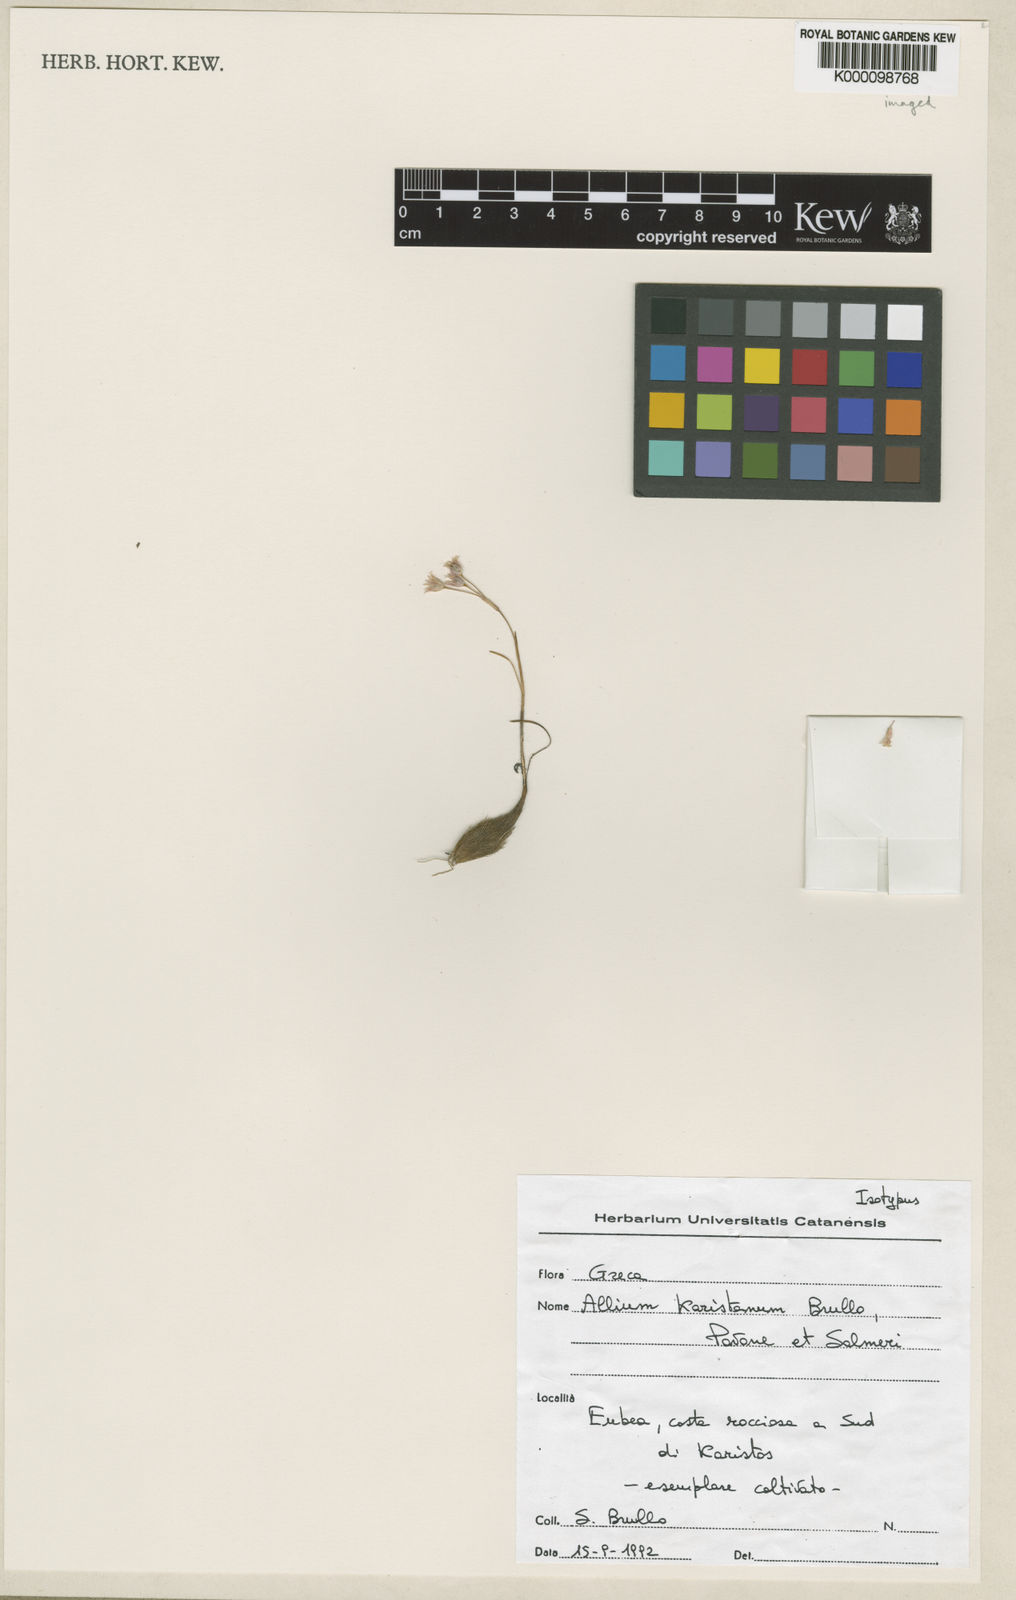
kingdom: Plantae
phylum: Tracheophyta
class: Liliopsida
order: Asparagales
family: Amaryllidaceae
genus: Allium
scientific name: Allium
